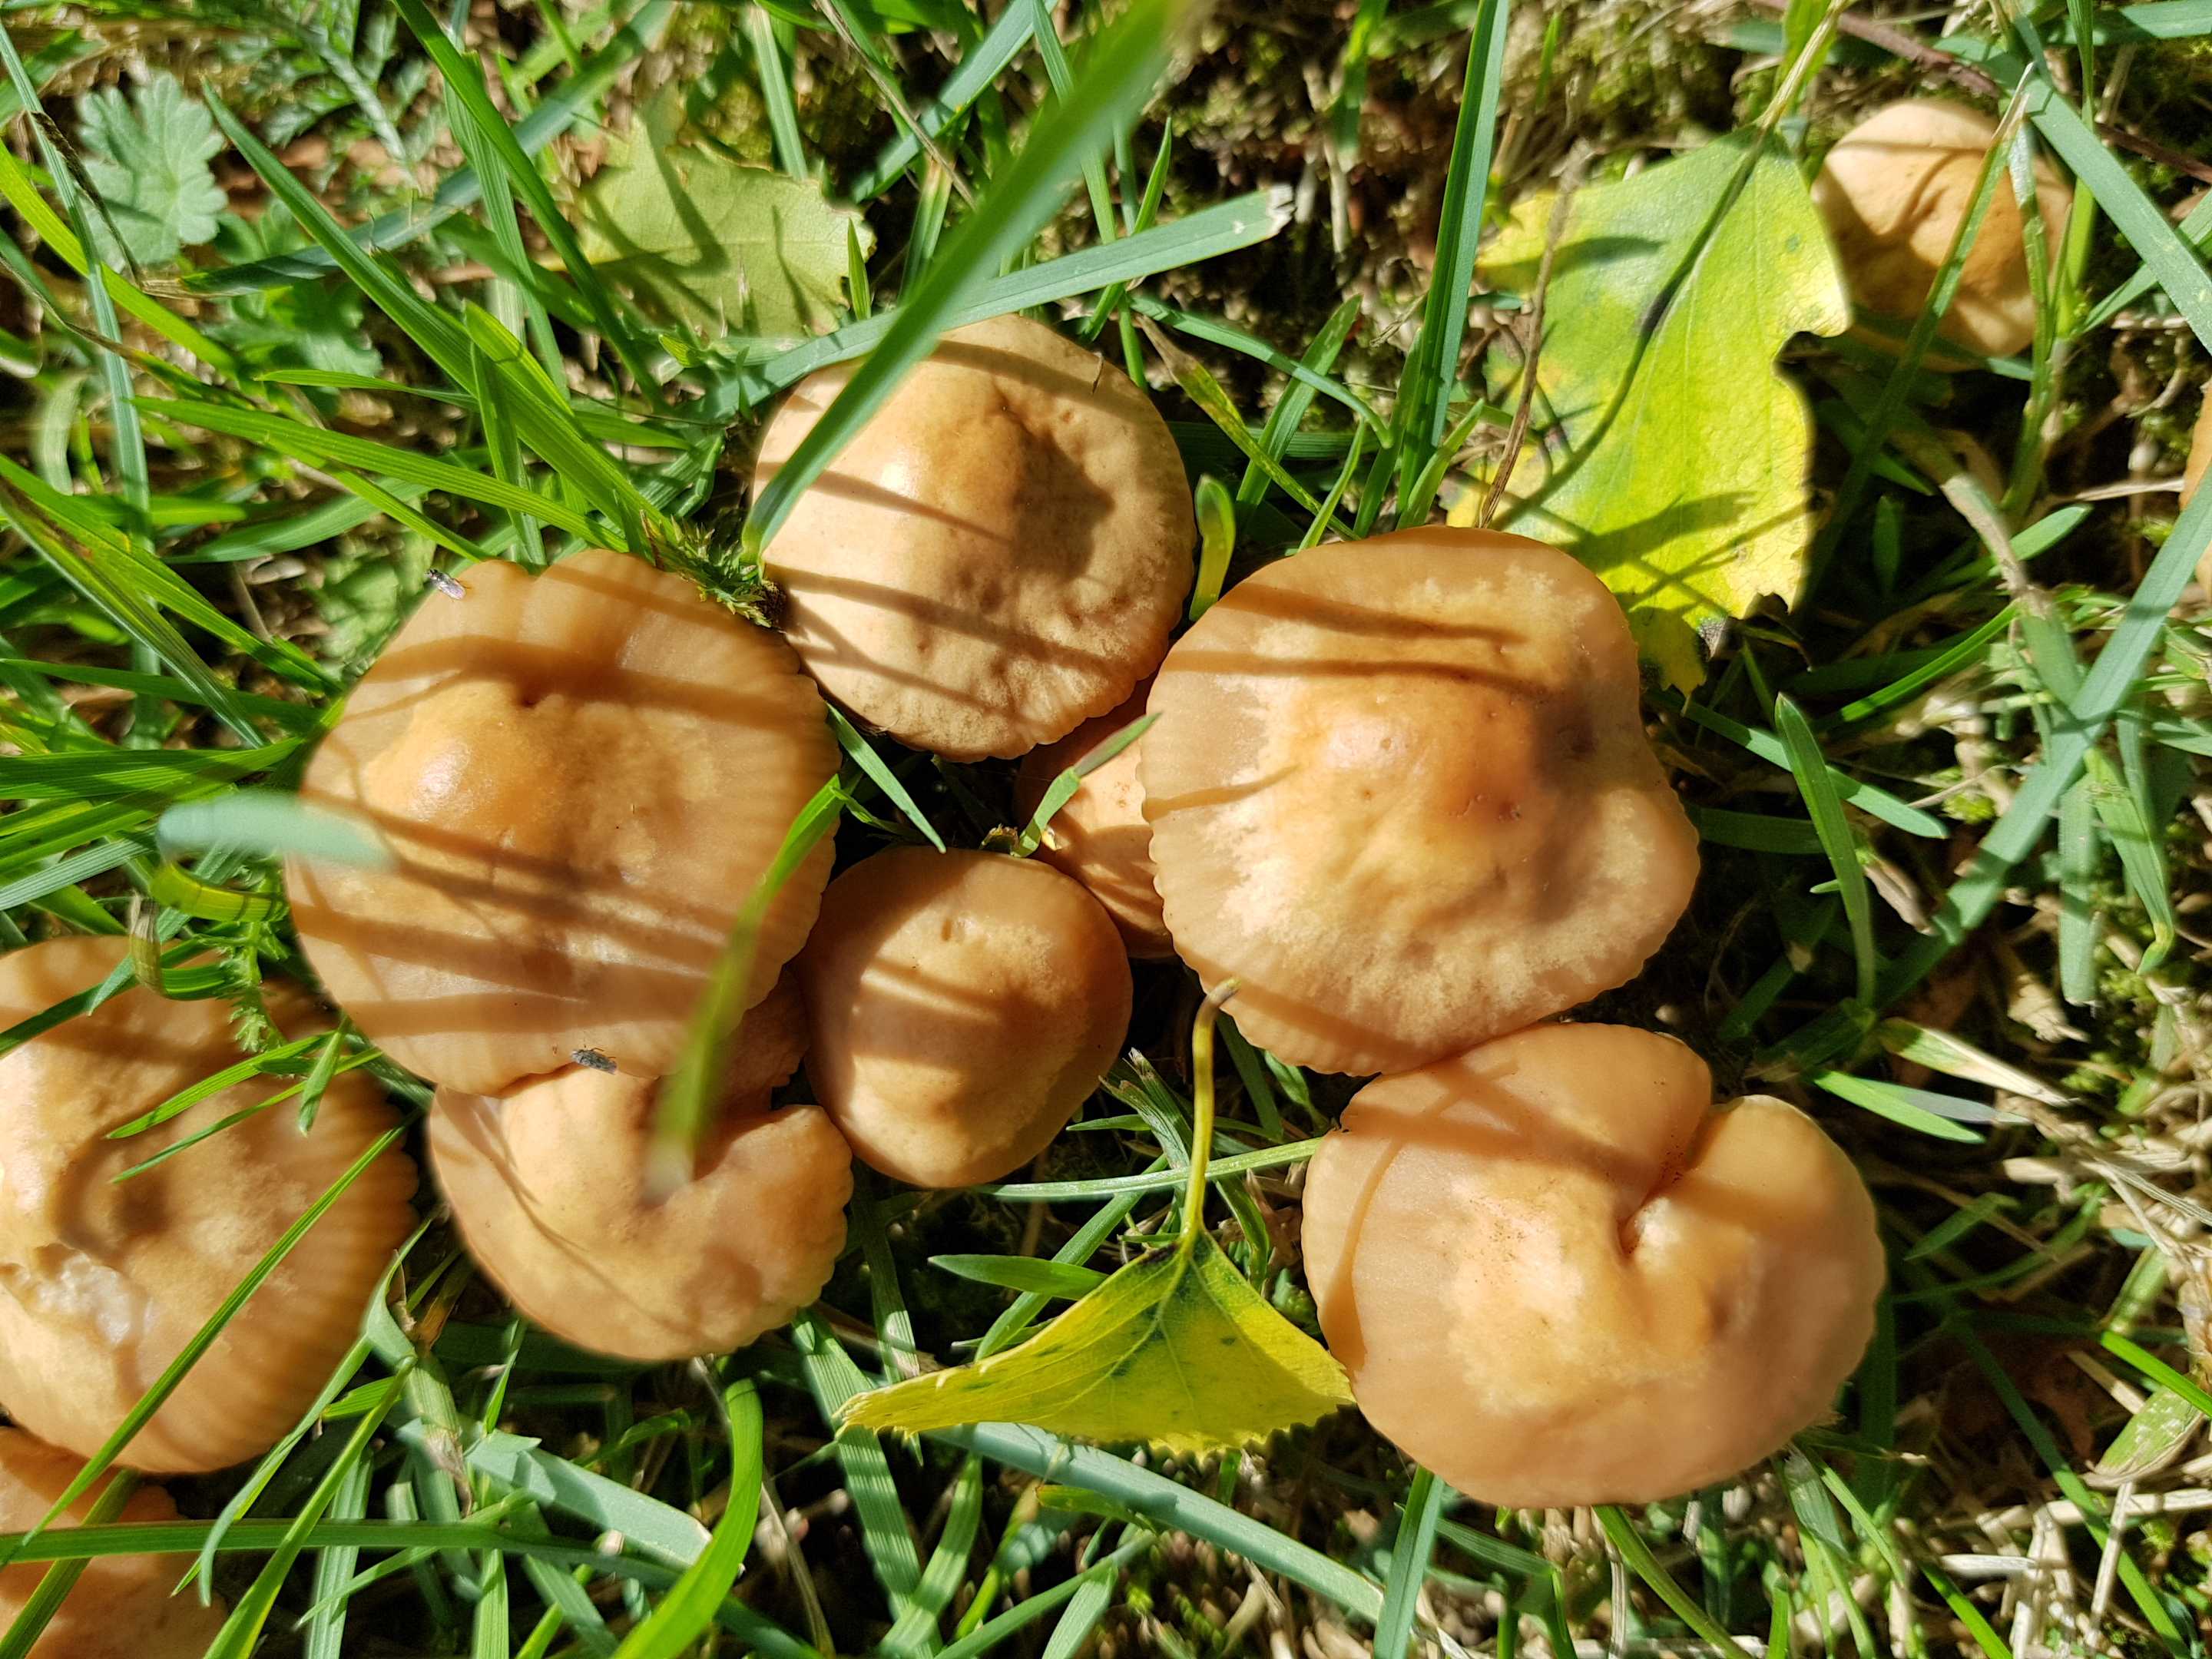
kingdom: Fungi
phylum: Basidiomycota
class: Agaricomycetes
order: Agaricales
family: Marasmiaceae
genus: Marasmius
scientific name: Marasmius oreades
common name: elledans-bruskhat
